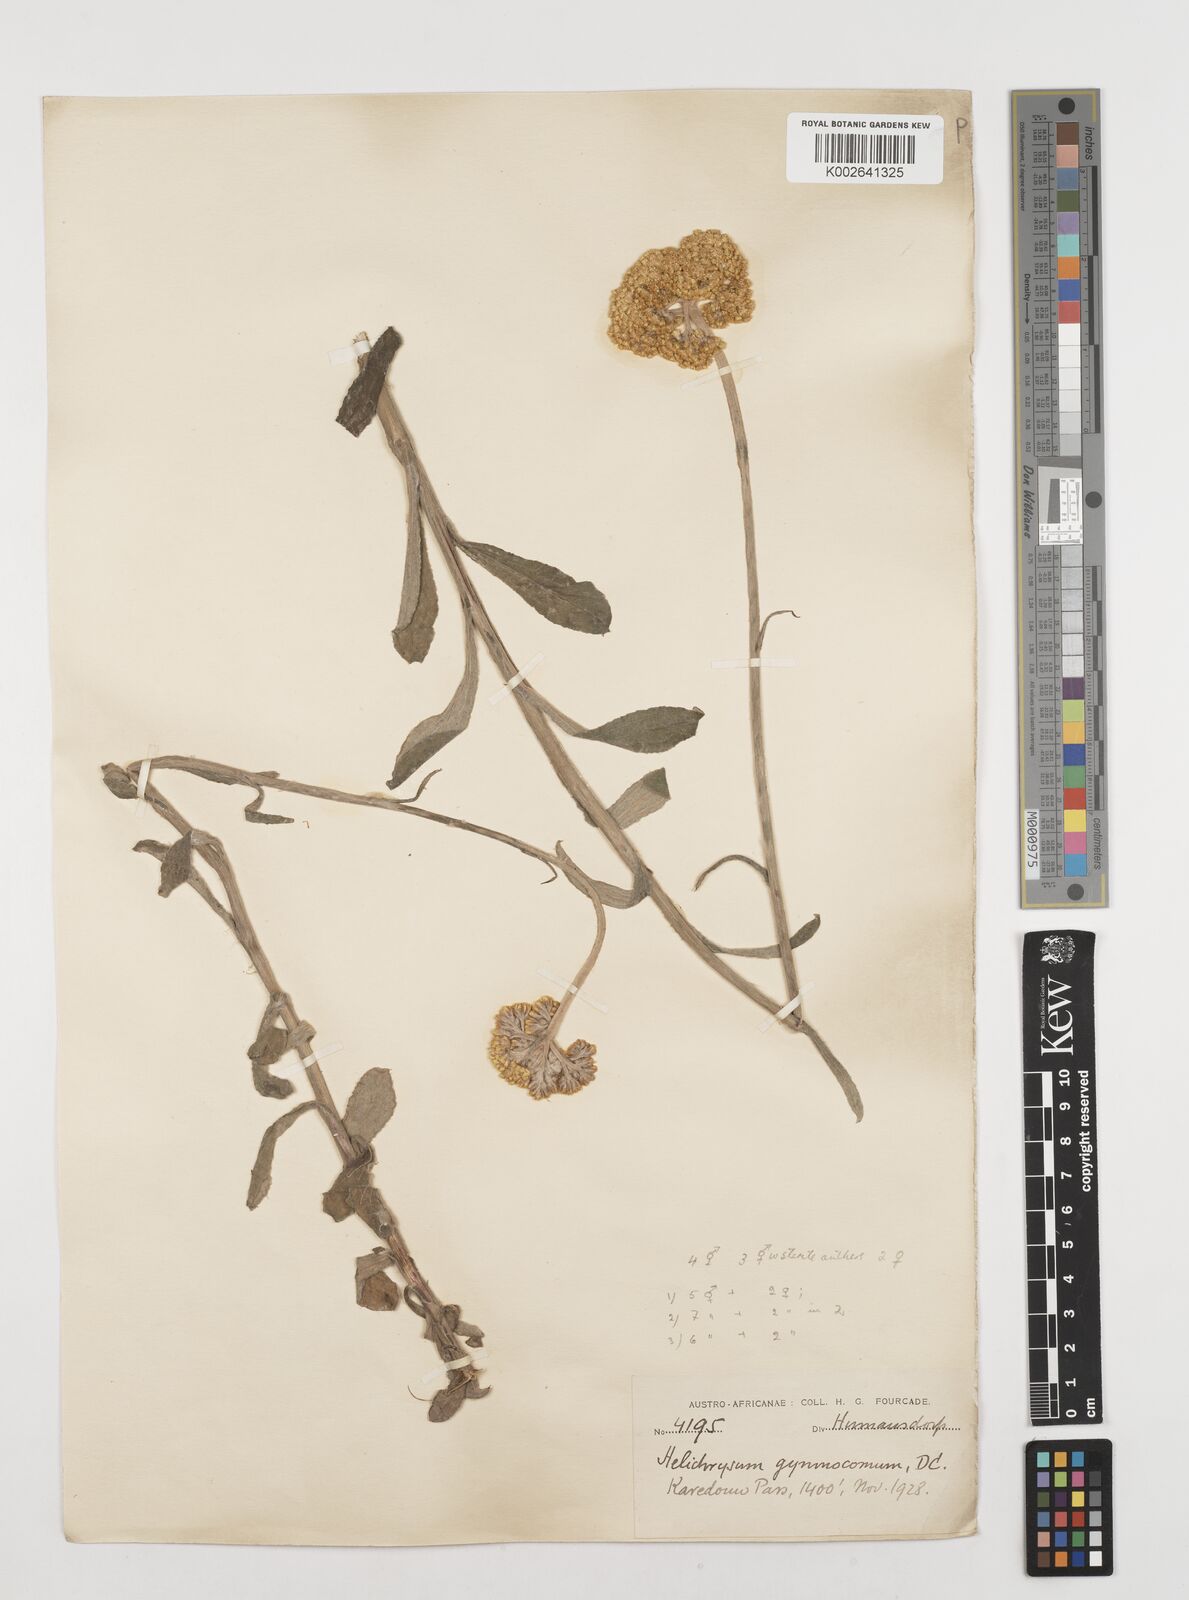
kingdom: Plantae
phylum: Tracheophyta
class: Magnoliopsida
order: Asterales
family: Asteraceae
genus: Helichrysum
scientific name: Helichrysum odoratissimum
